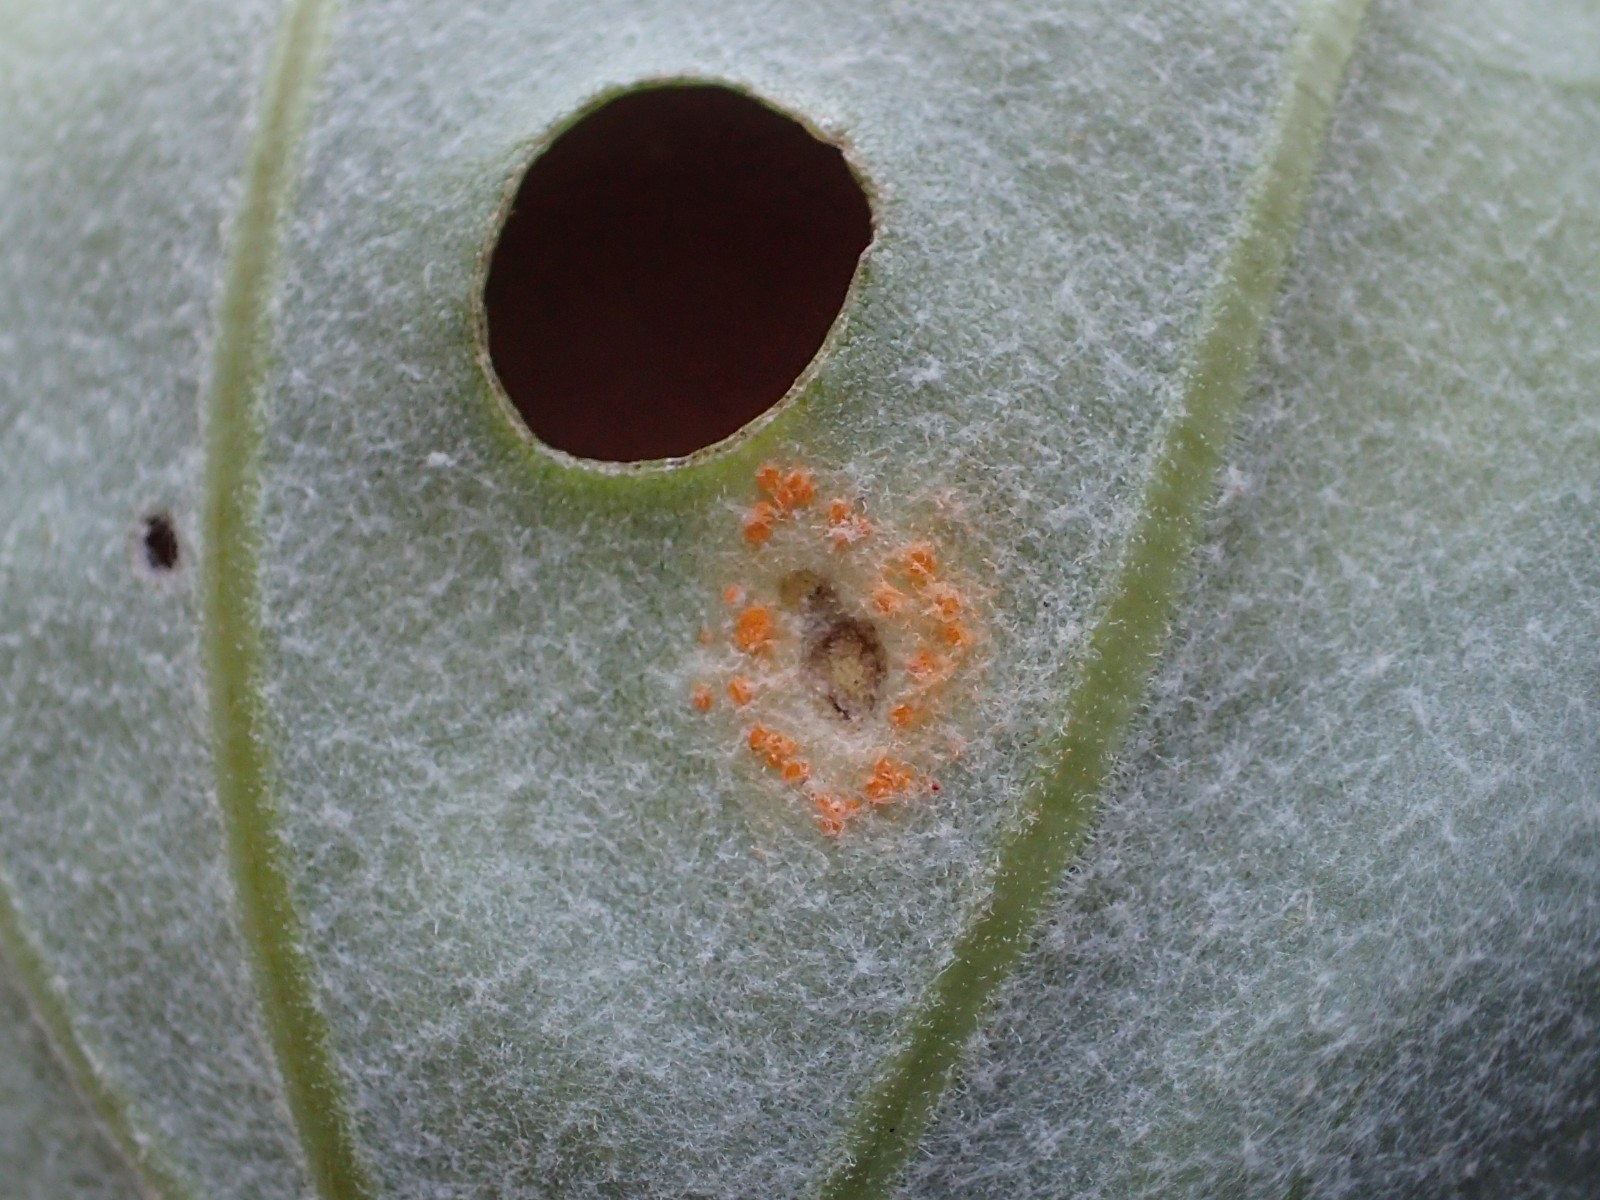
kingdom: Fungi
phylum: Basidiomycota
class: Pucciniomycetes
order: Pucciniales
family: Coleosporiaceae
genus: Coleosporium
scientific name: Coleosporium tussilaginis
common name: almindelig fyrrenålerust
